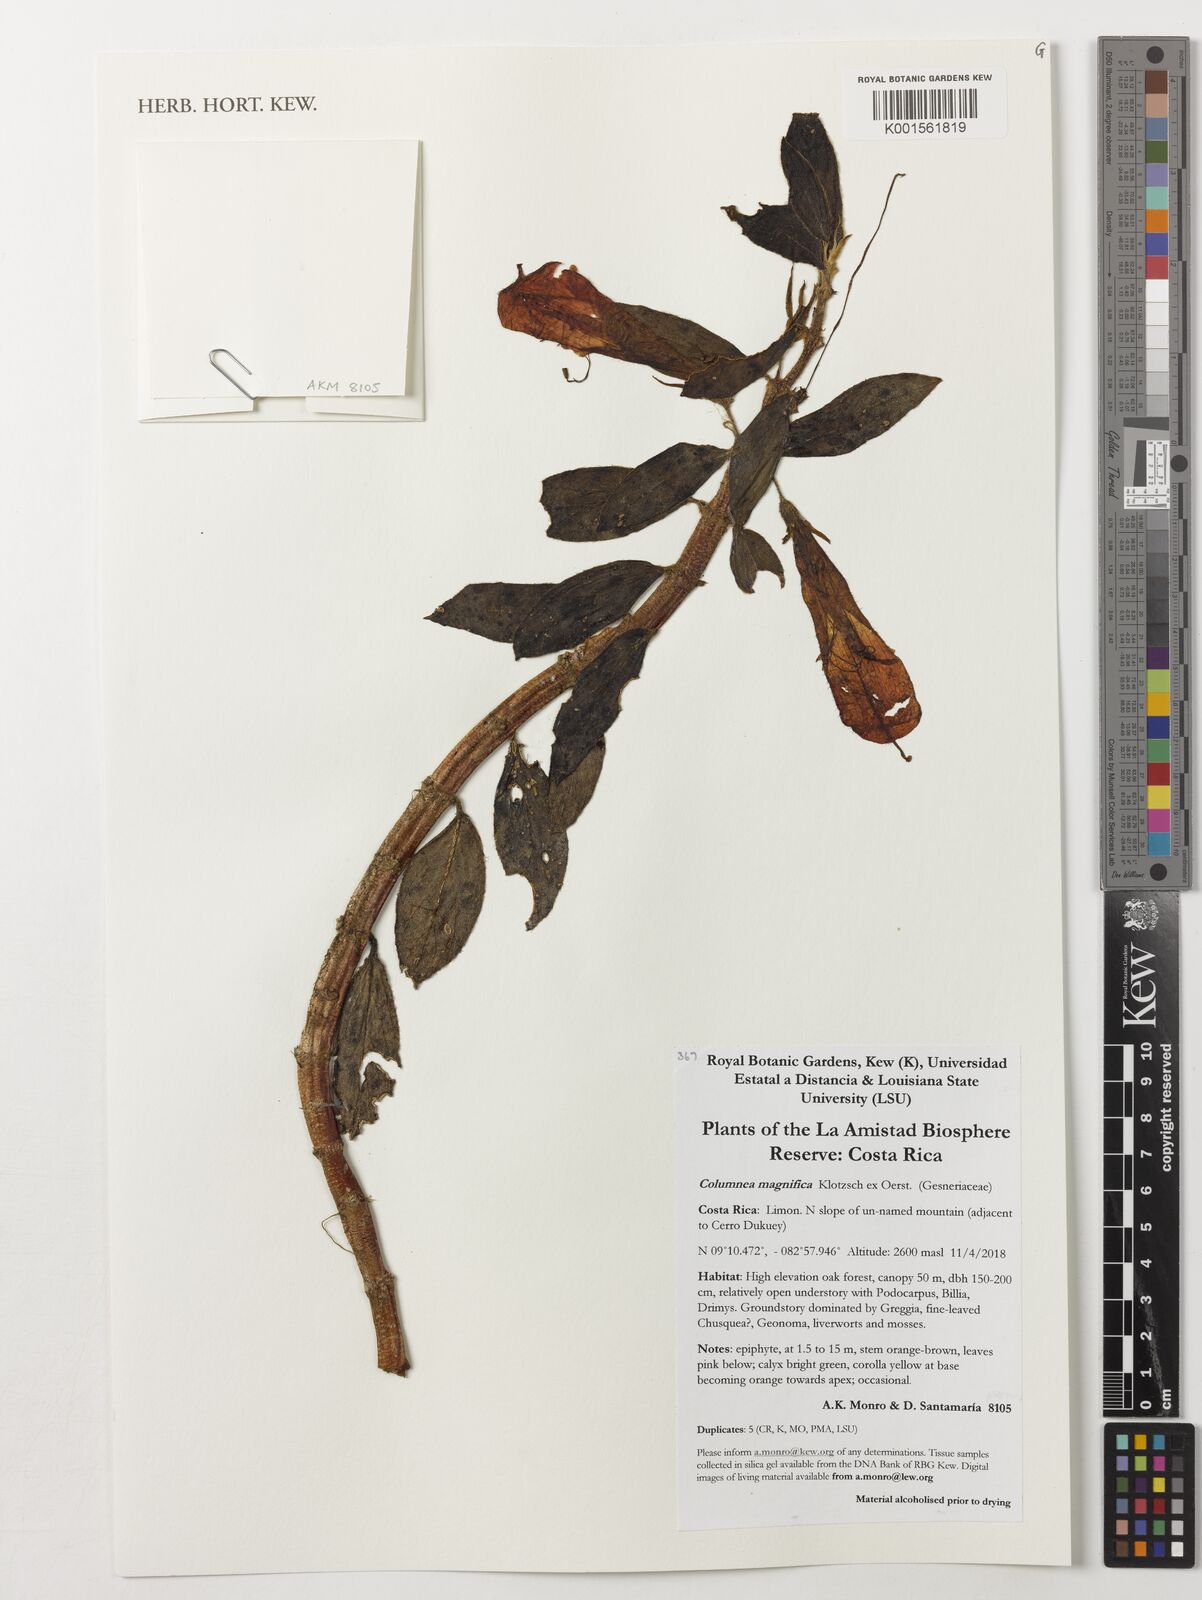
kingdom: Plantae
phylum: Tracheophyta
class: Magnoliopsida
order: Lamiales
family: Gesneriaceae
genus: Columnea
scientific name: Columnea magnifica
